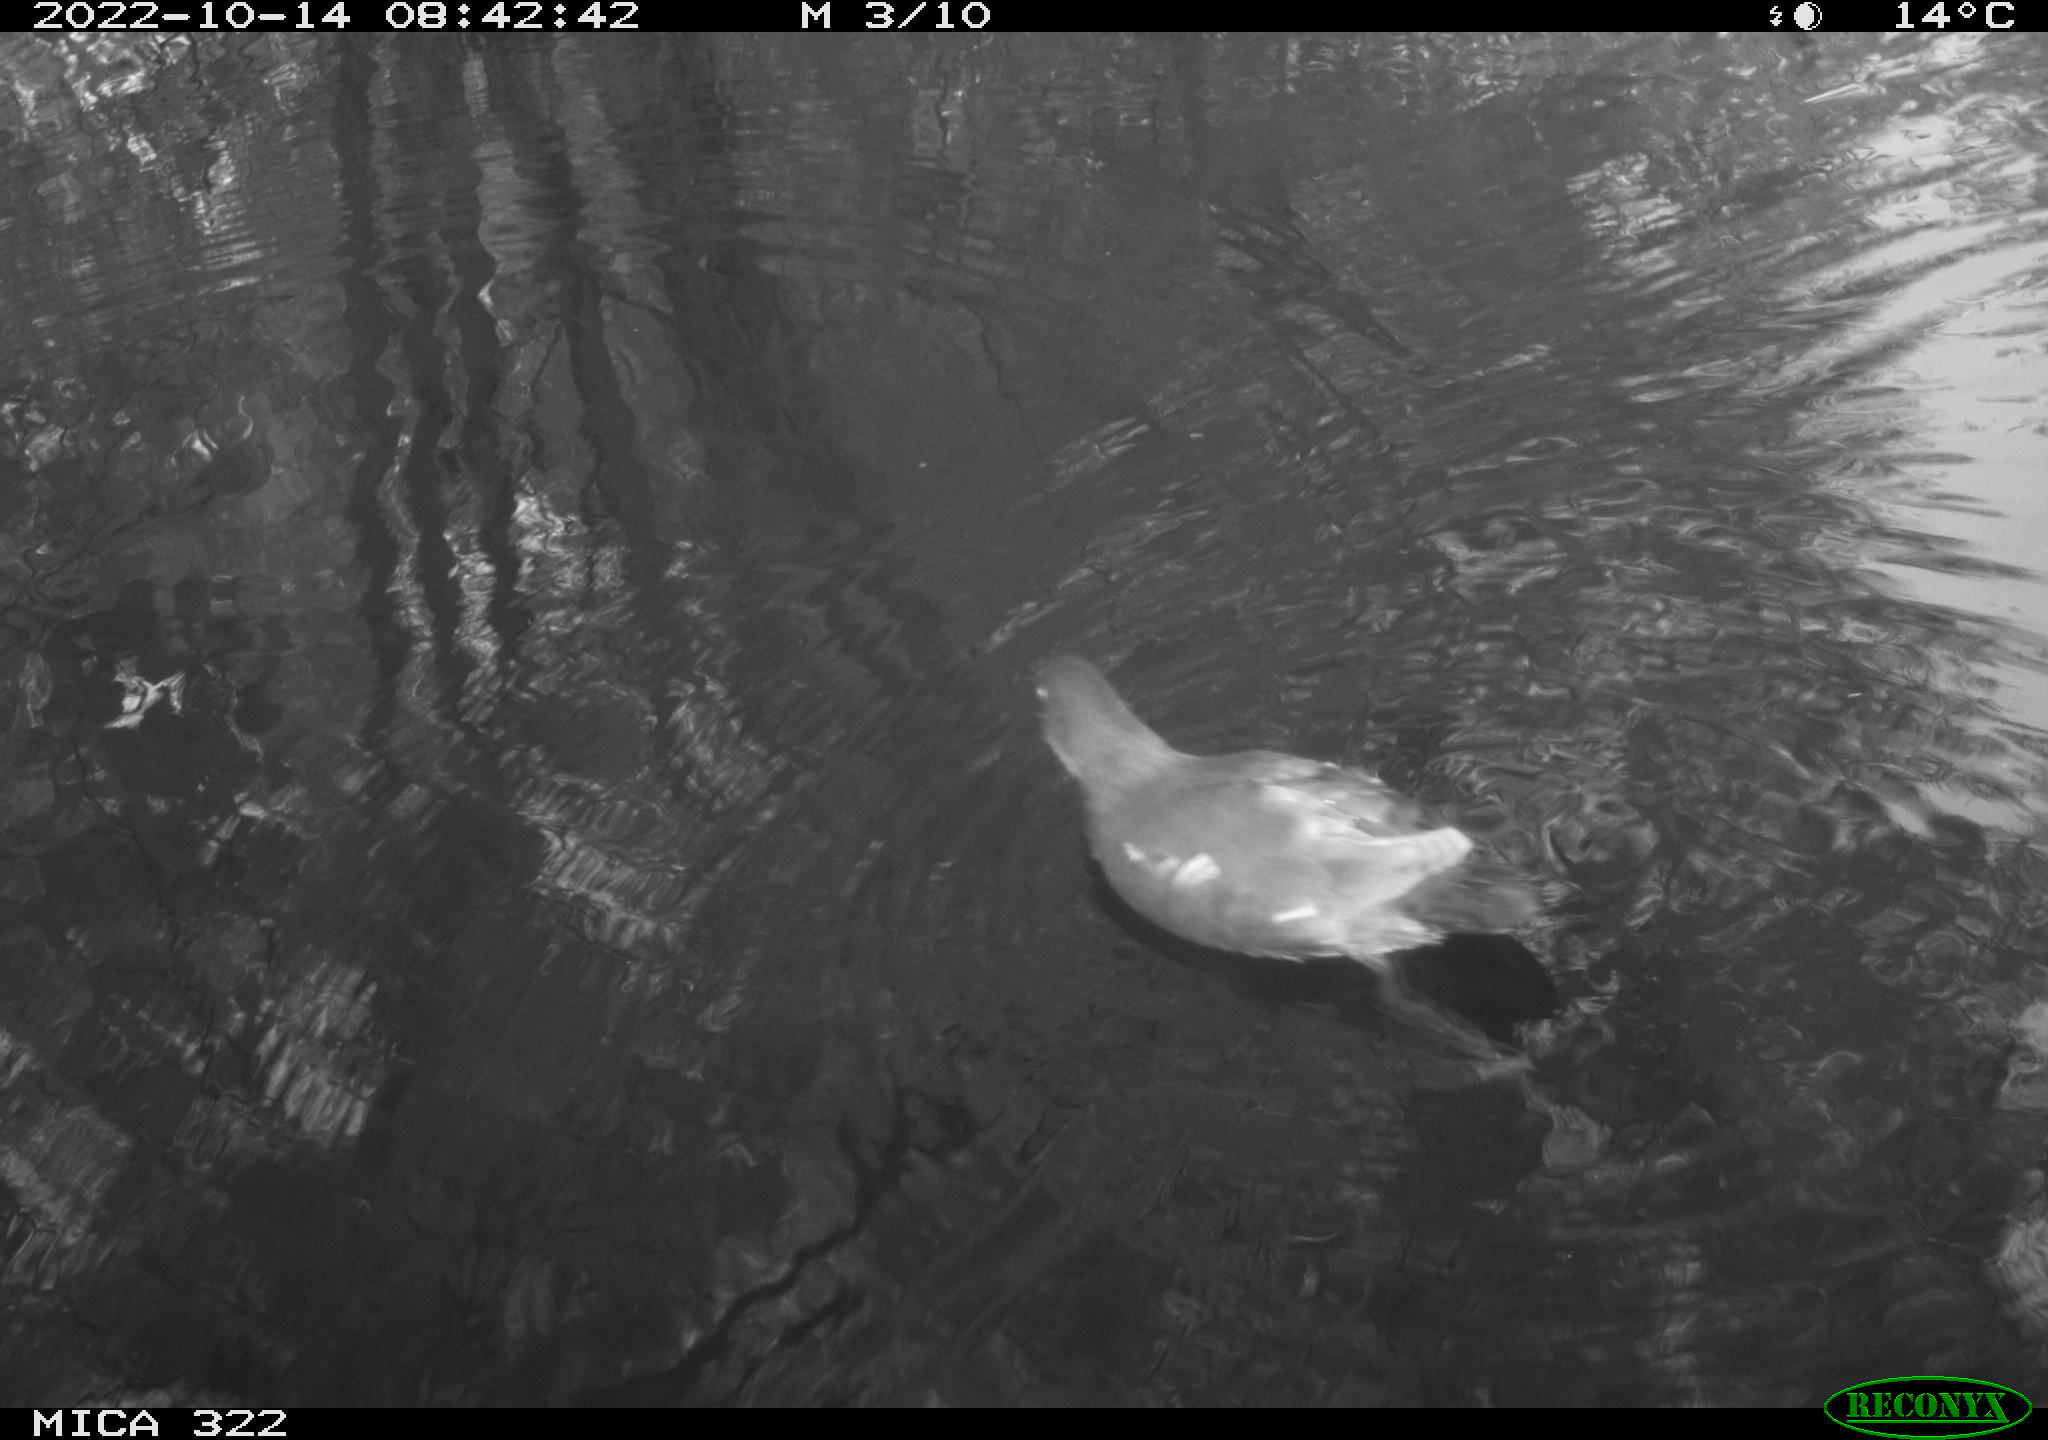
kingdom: Animalia
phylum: Chordata
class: Aves
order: Gruiformes
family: Rallidae
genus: Gallinula
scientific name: Gallinula chloropus
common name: Common moorhen
